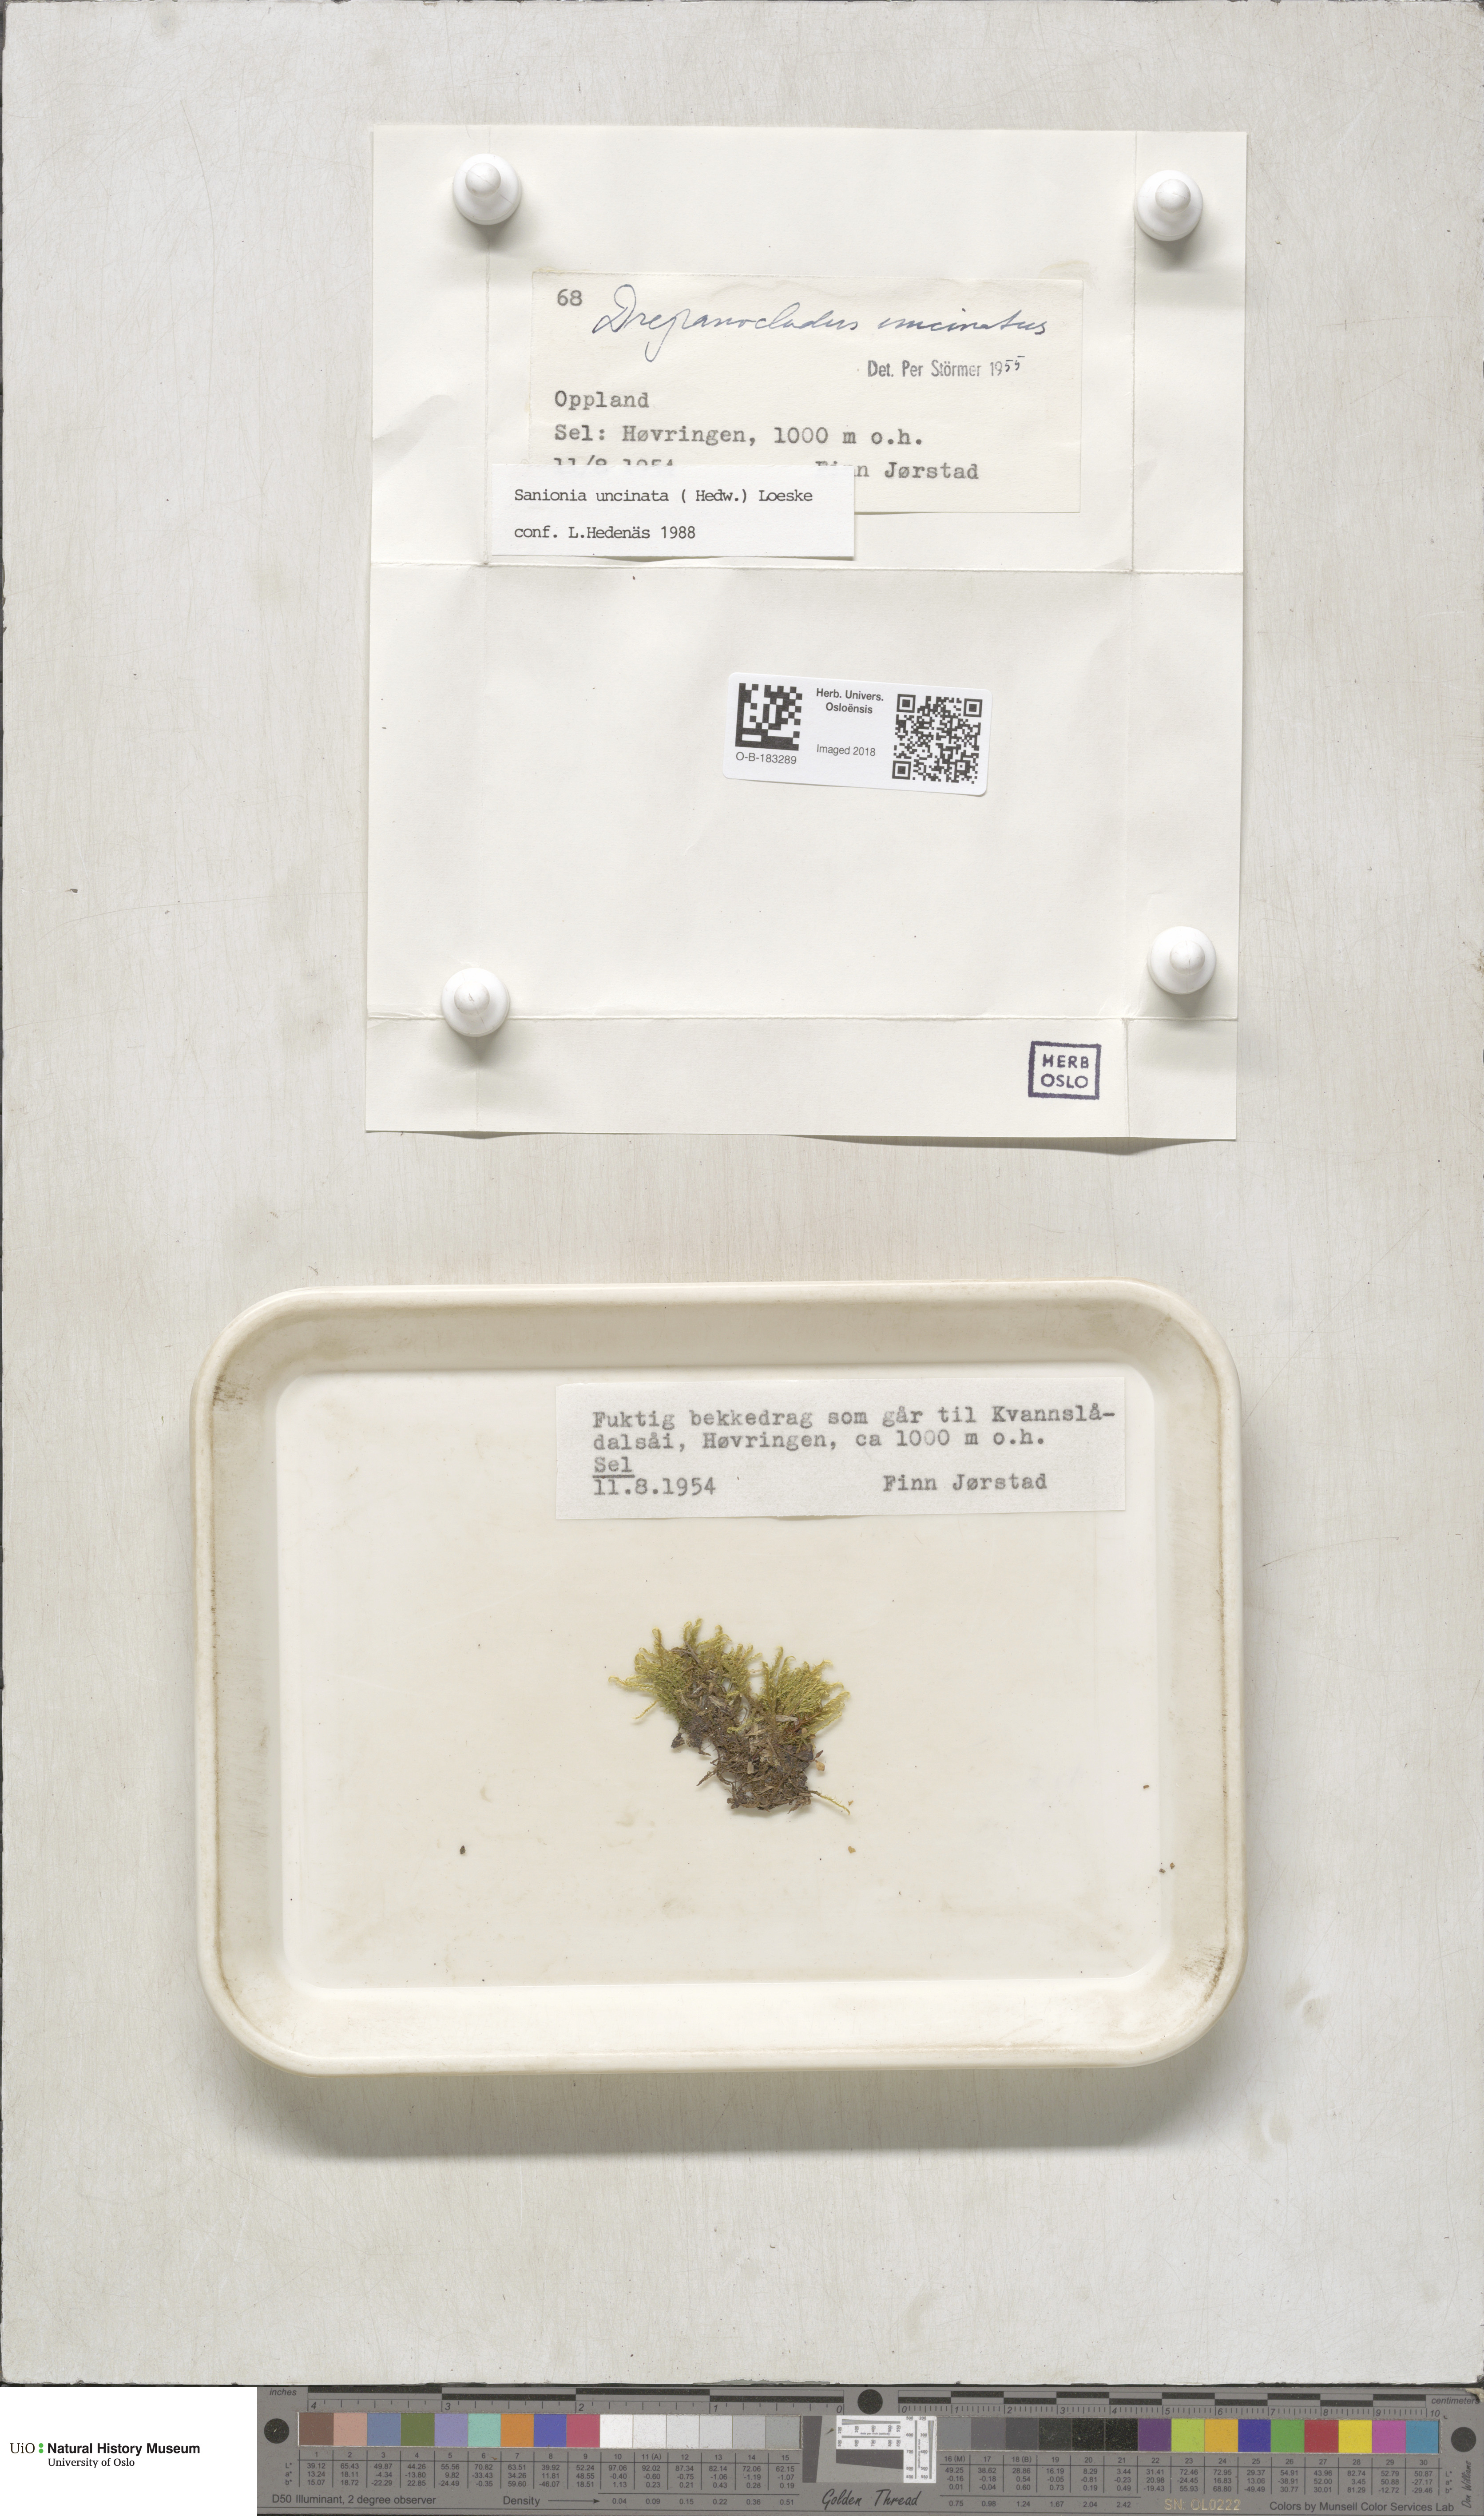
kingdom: Plantae
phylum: Bryophyta
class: Bryopsida
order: Hypnales
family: Scorpidiaceae
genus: Sanionia
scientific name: Sanionia uncinata
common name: Sickle moss
